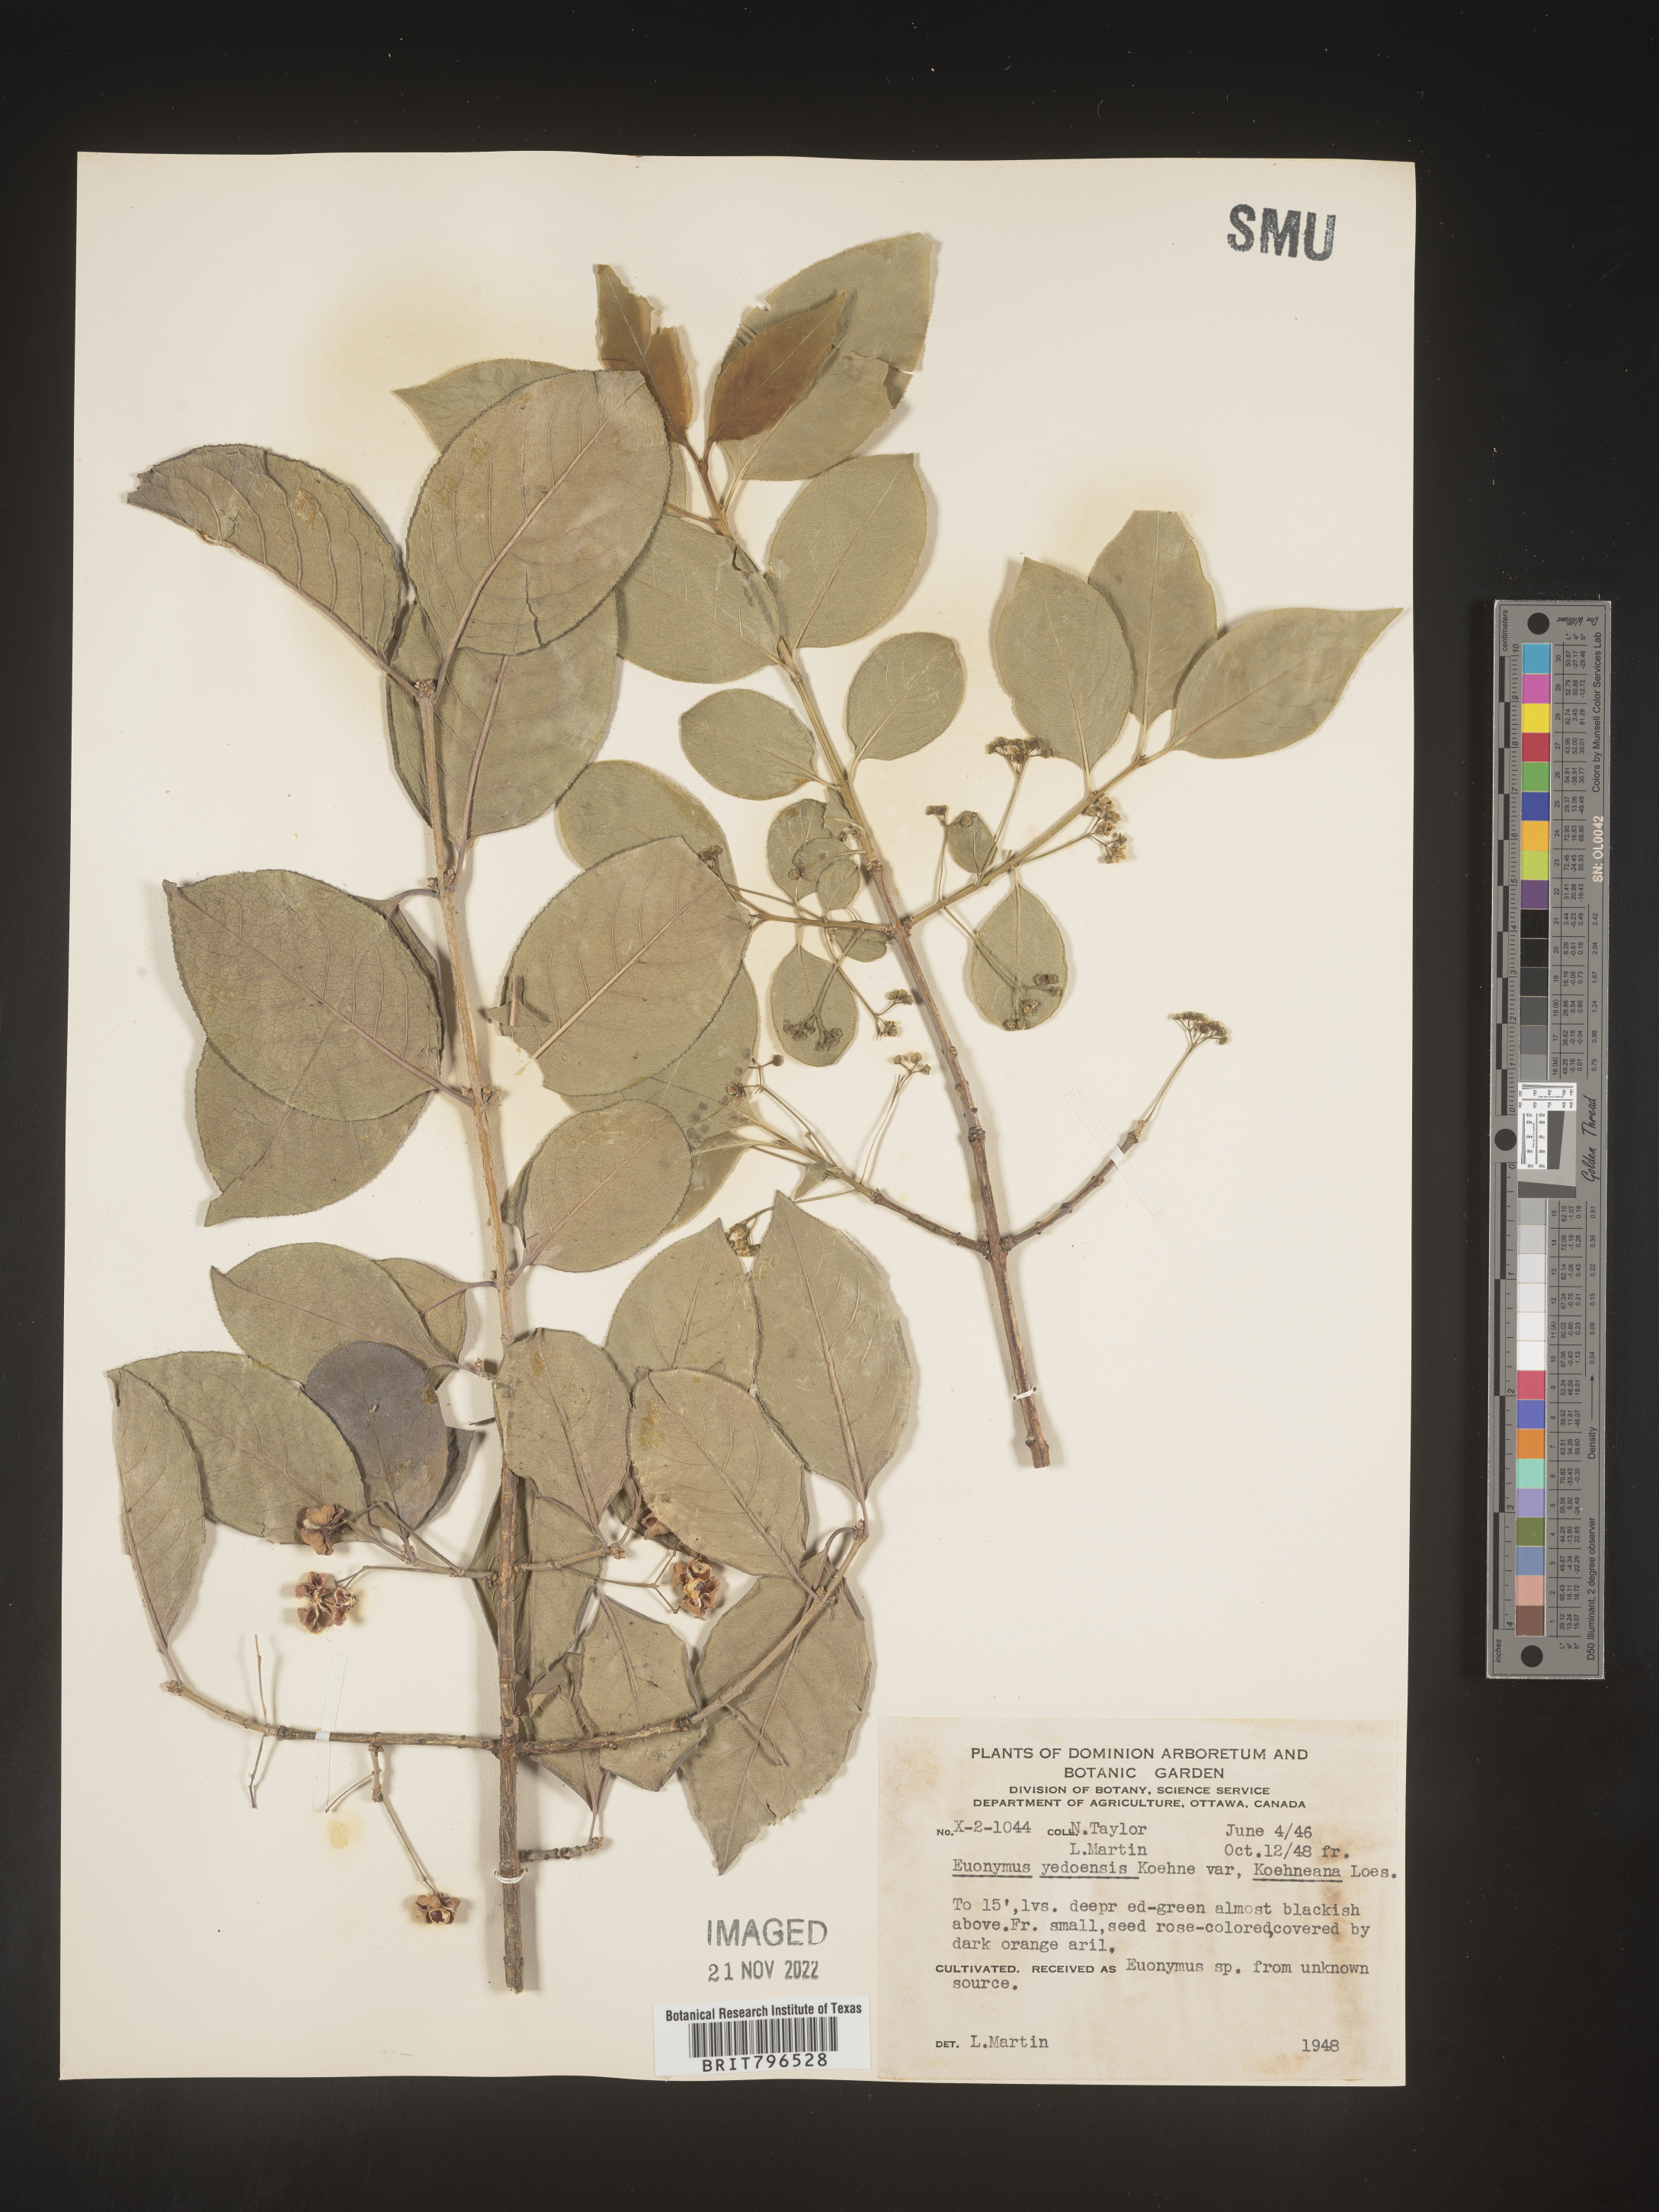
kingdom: Plantae
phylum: Tracheophyta
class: Magnoliopsida
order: Celastrales
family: Celastraceae
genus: Euonymus
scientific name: Euonymus
